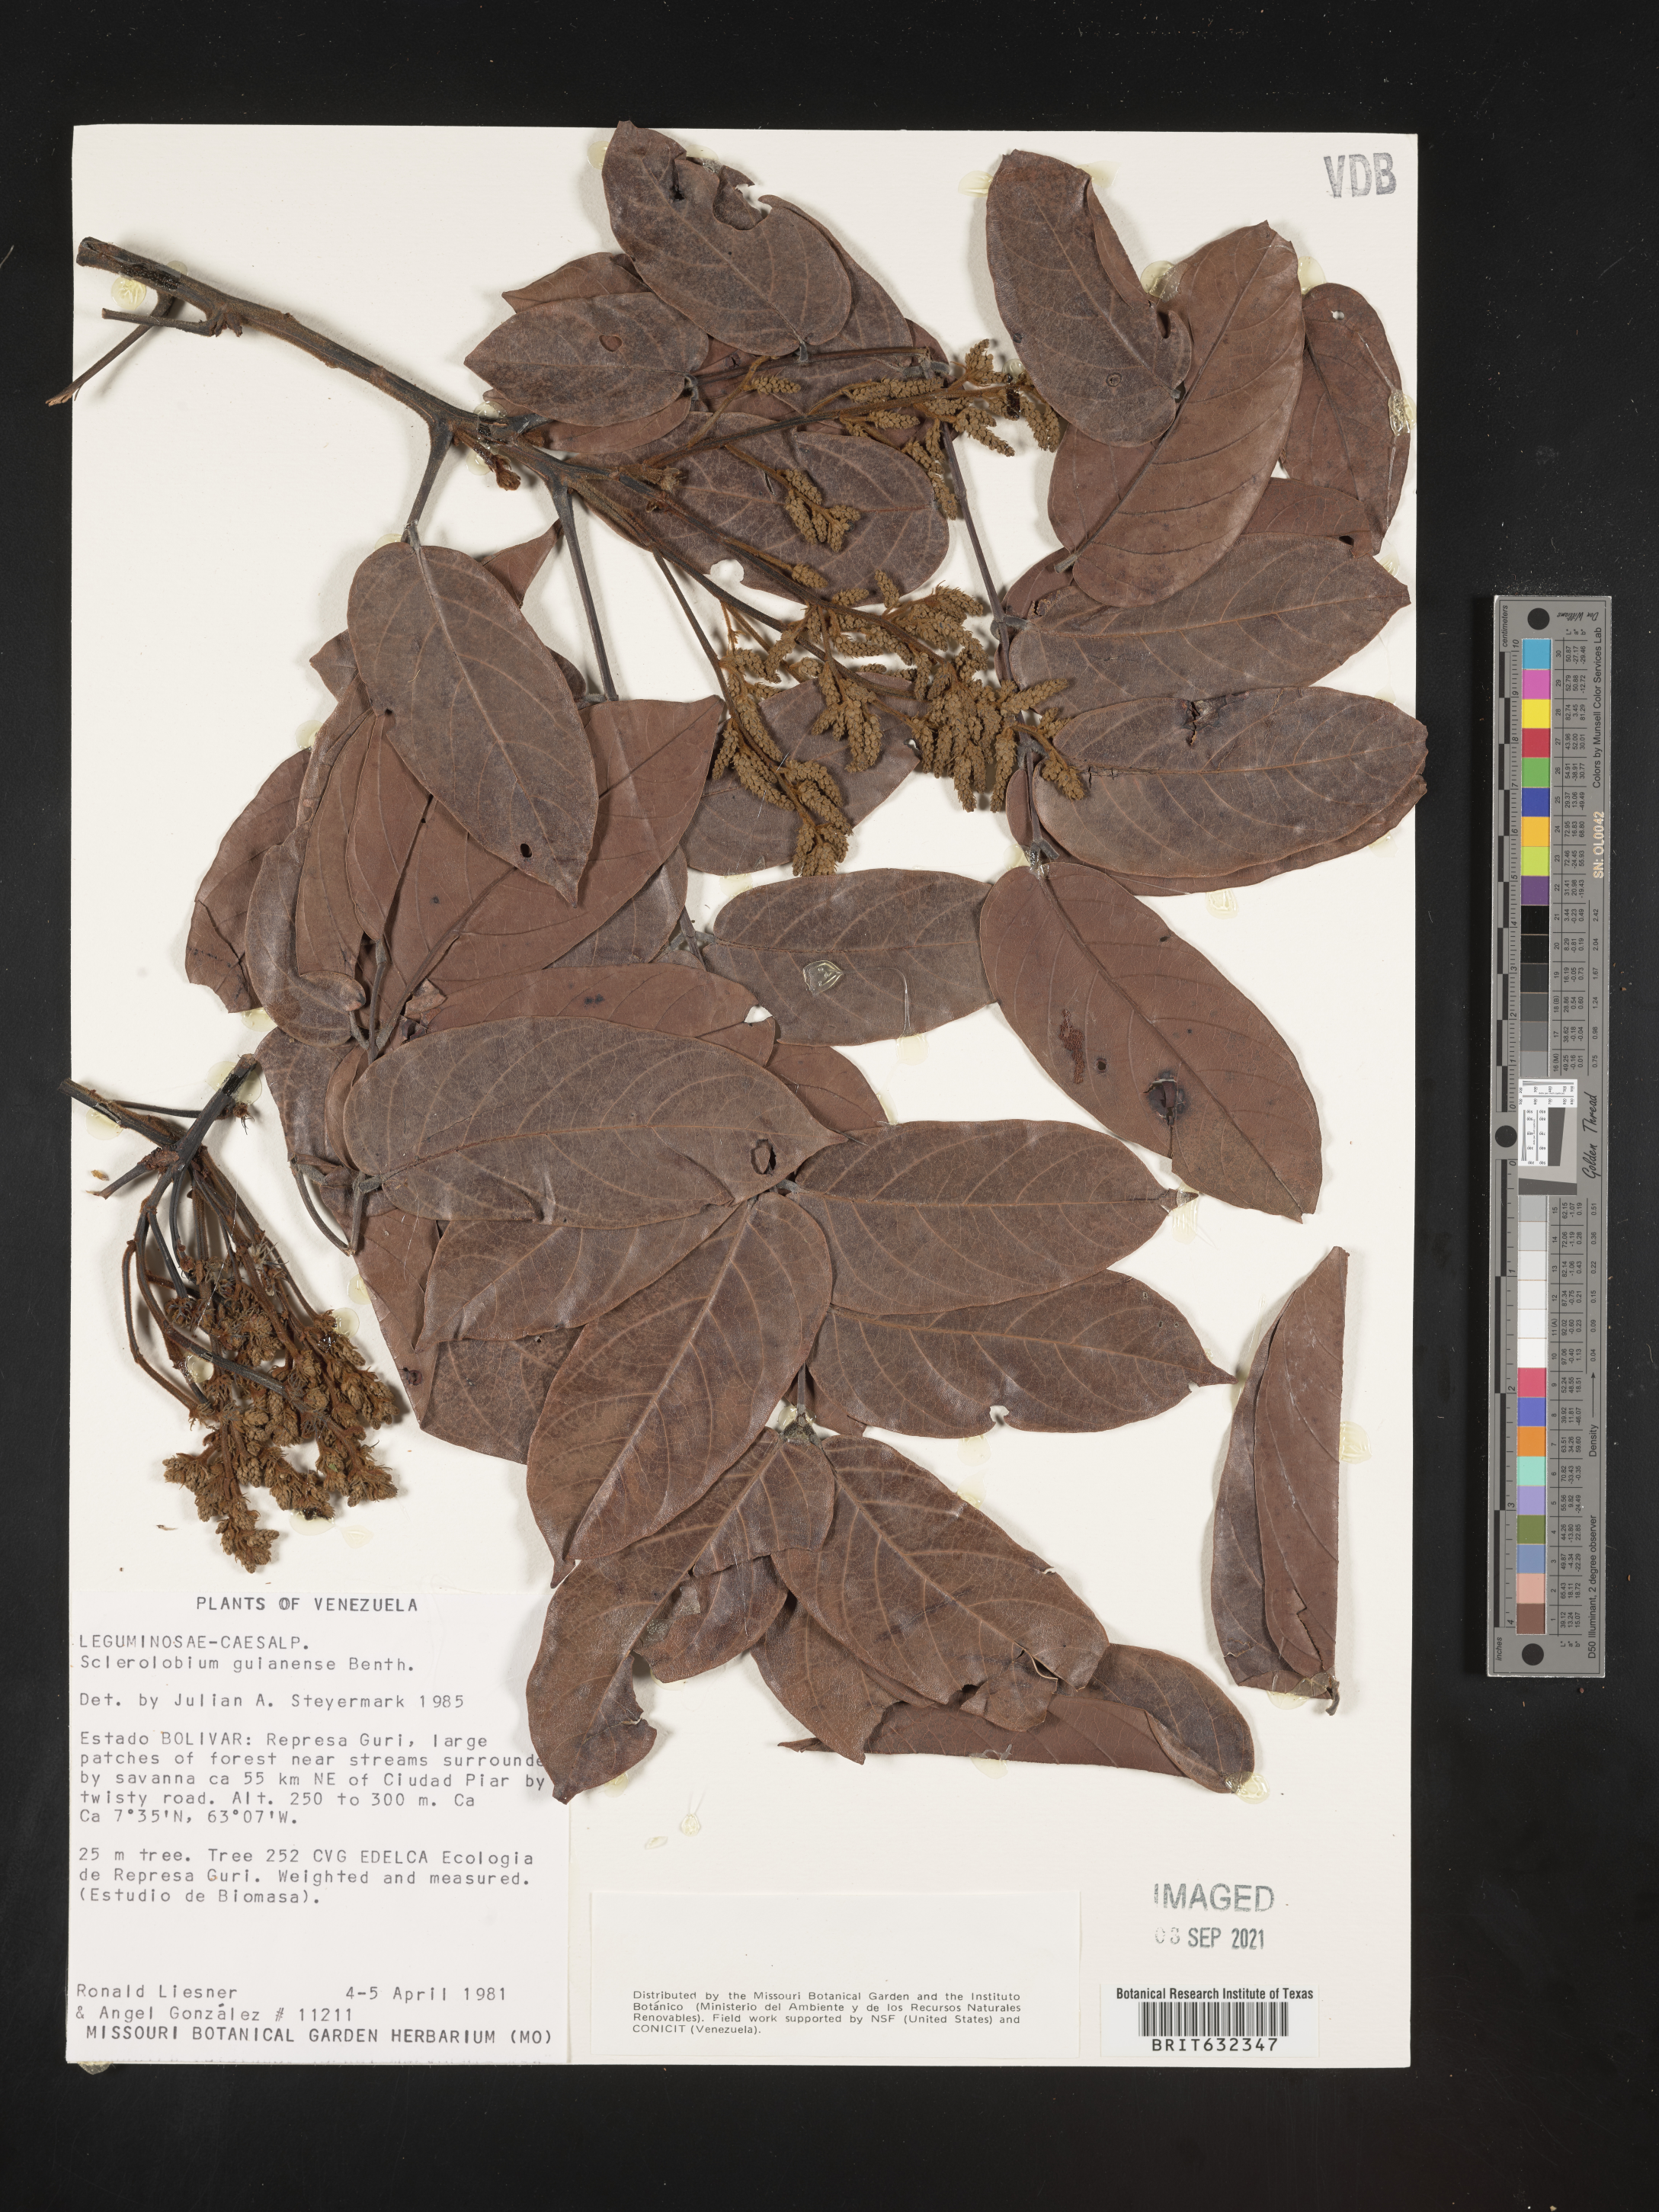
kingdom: Plantae
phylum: Tracheophyta
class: Magnoliopsida
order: Fabales
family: Fabaceae
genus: Tachigali
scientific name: Tachigali
